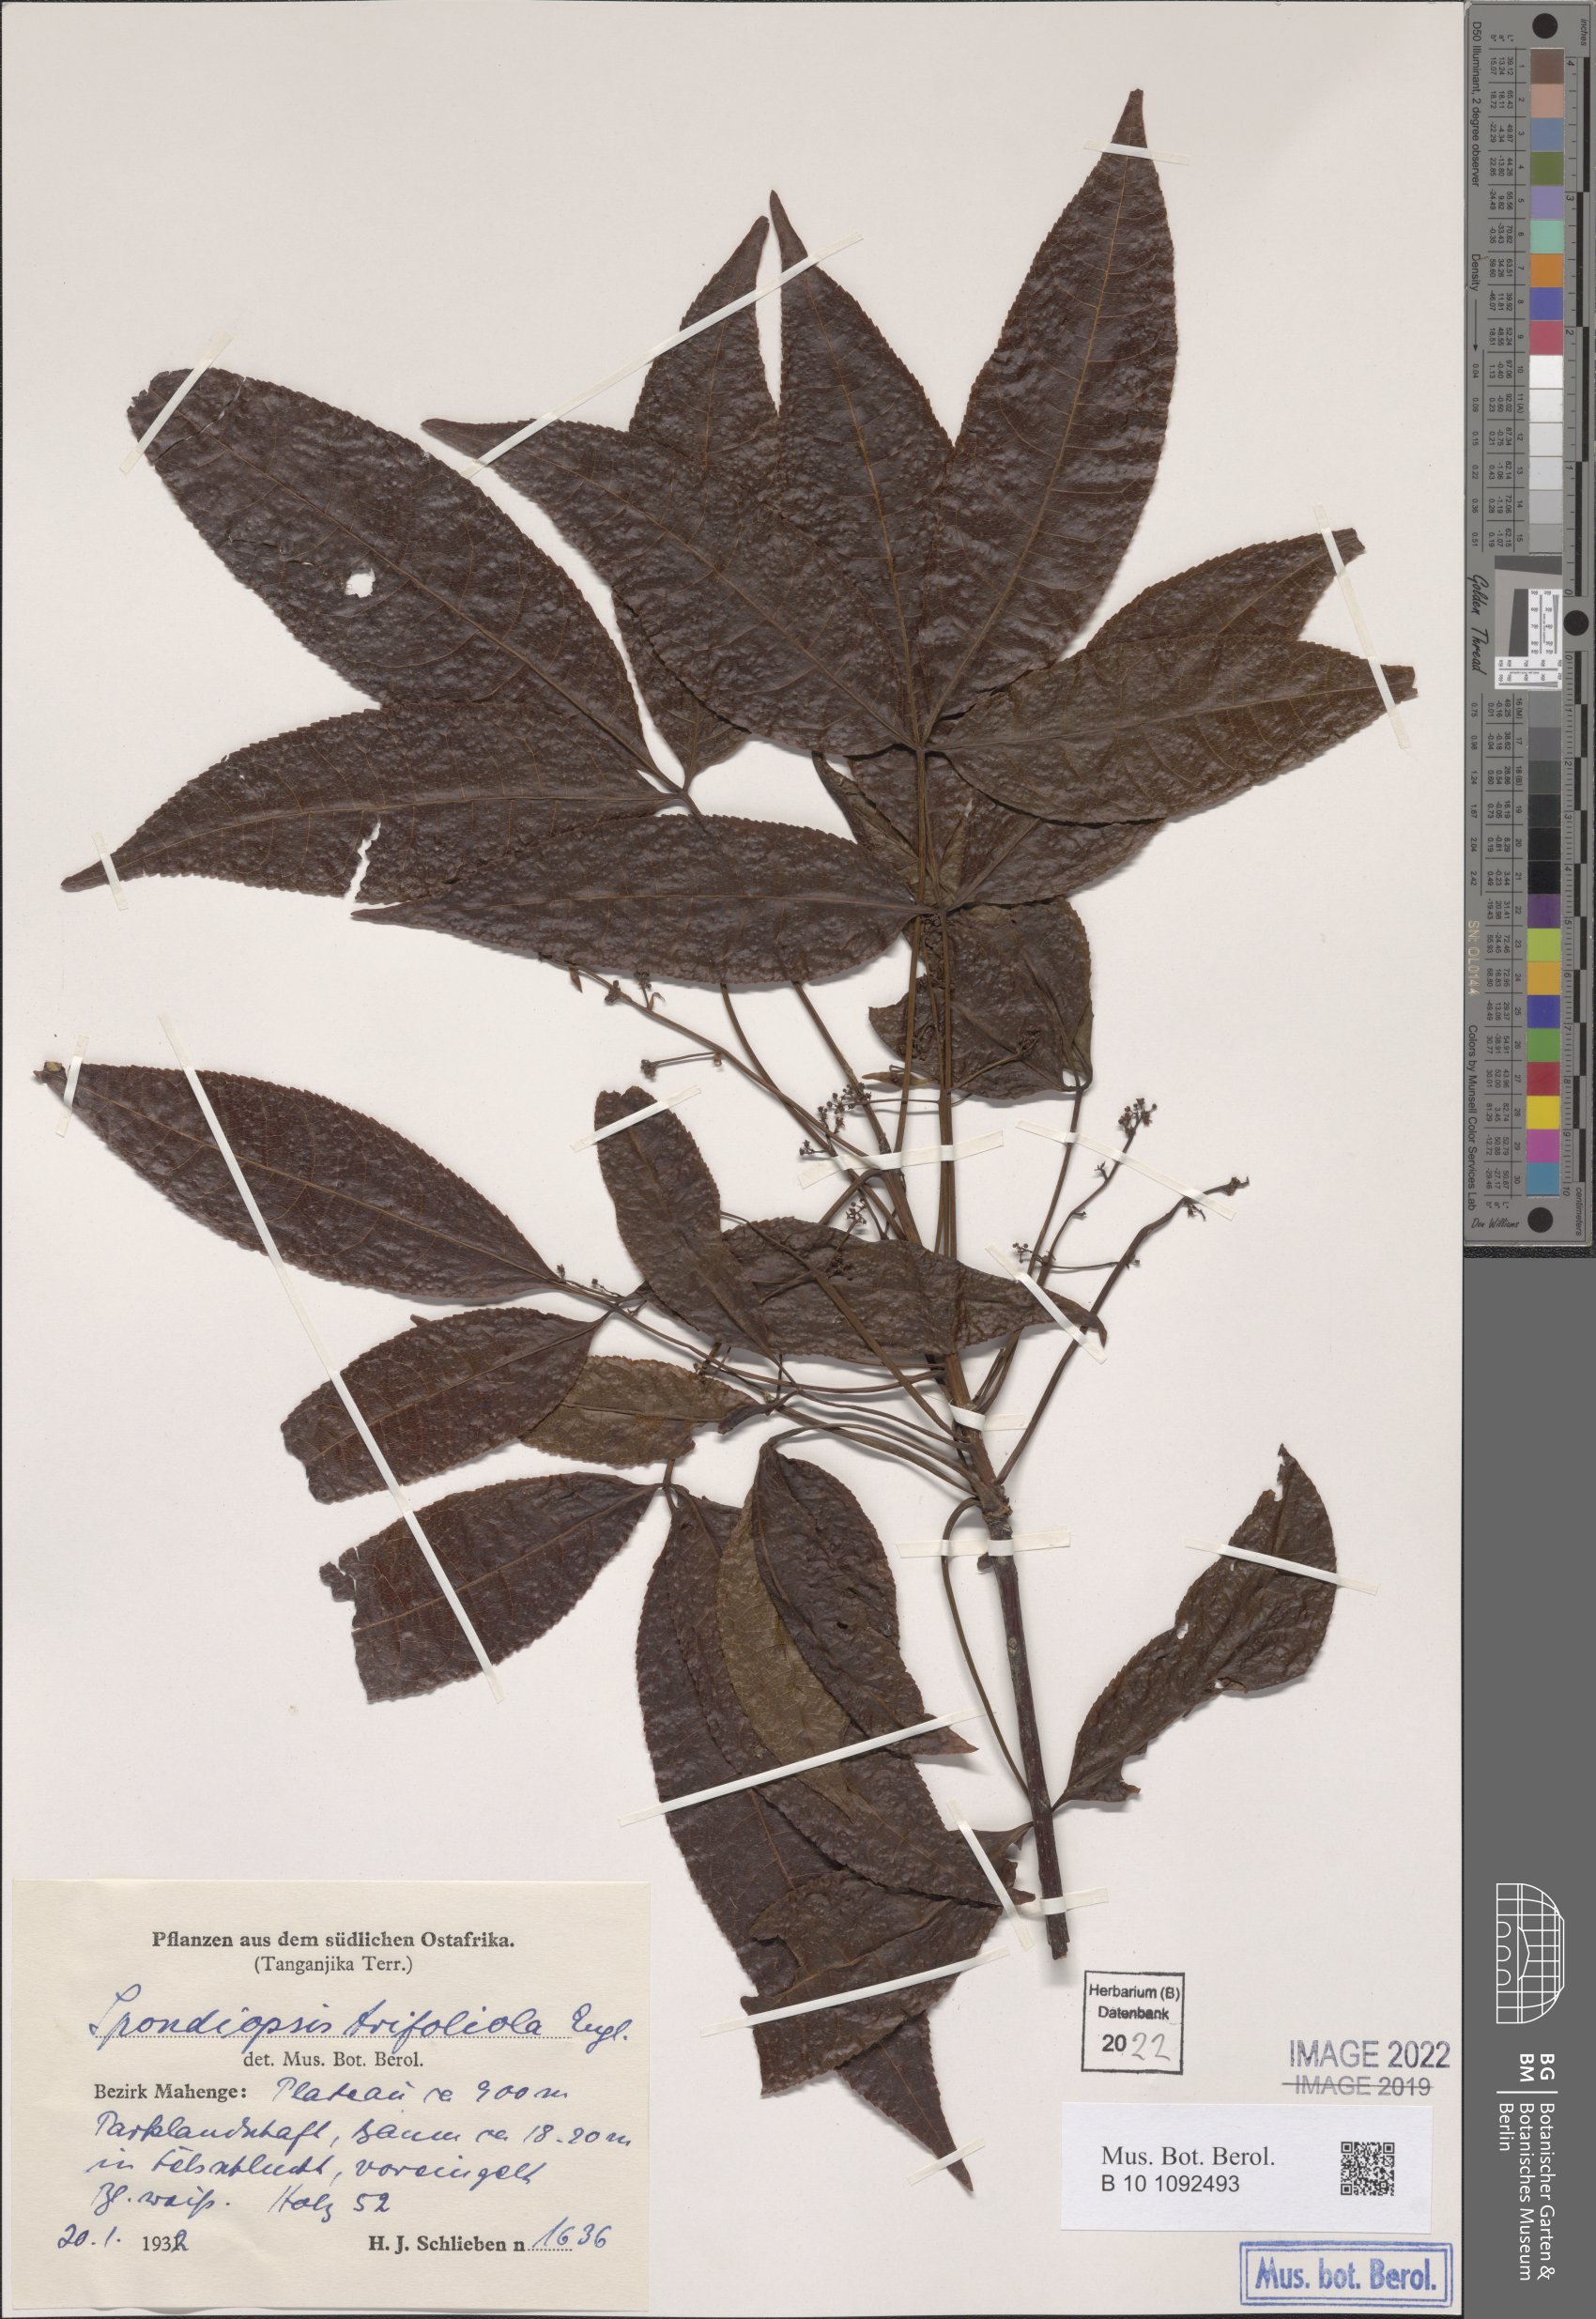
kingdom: Plantae
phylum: Tracheophyta
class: Magnoliopsida
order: Sapindales
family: Burseraceae
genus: Commiphora
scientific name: Commiphora eminii
